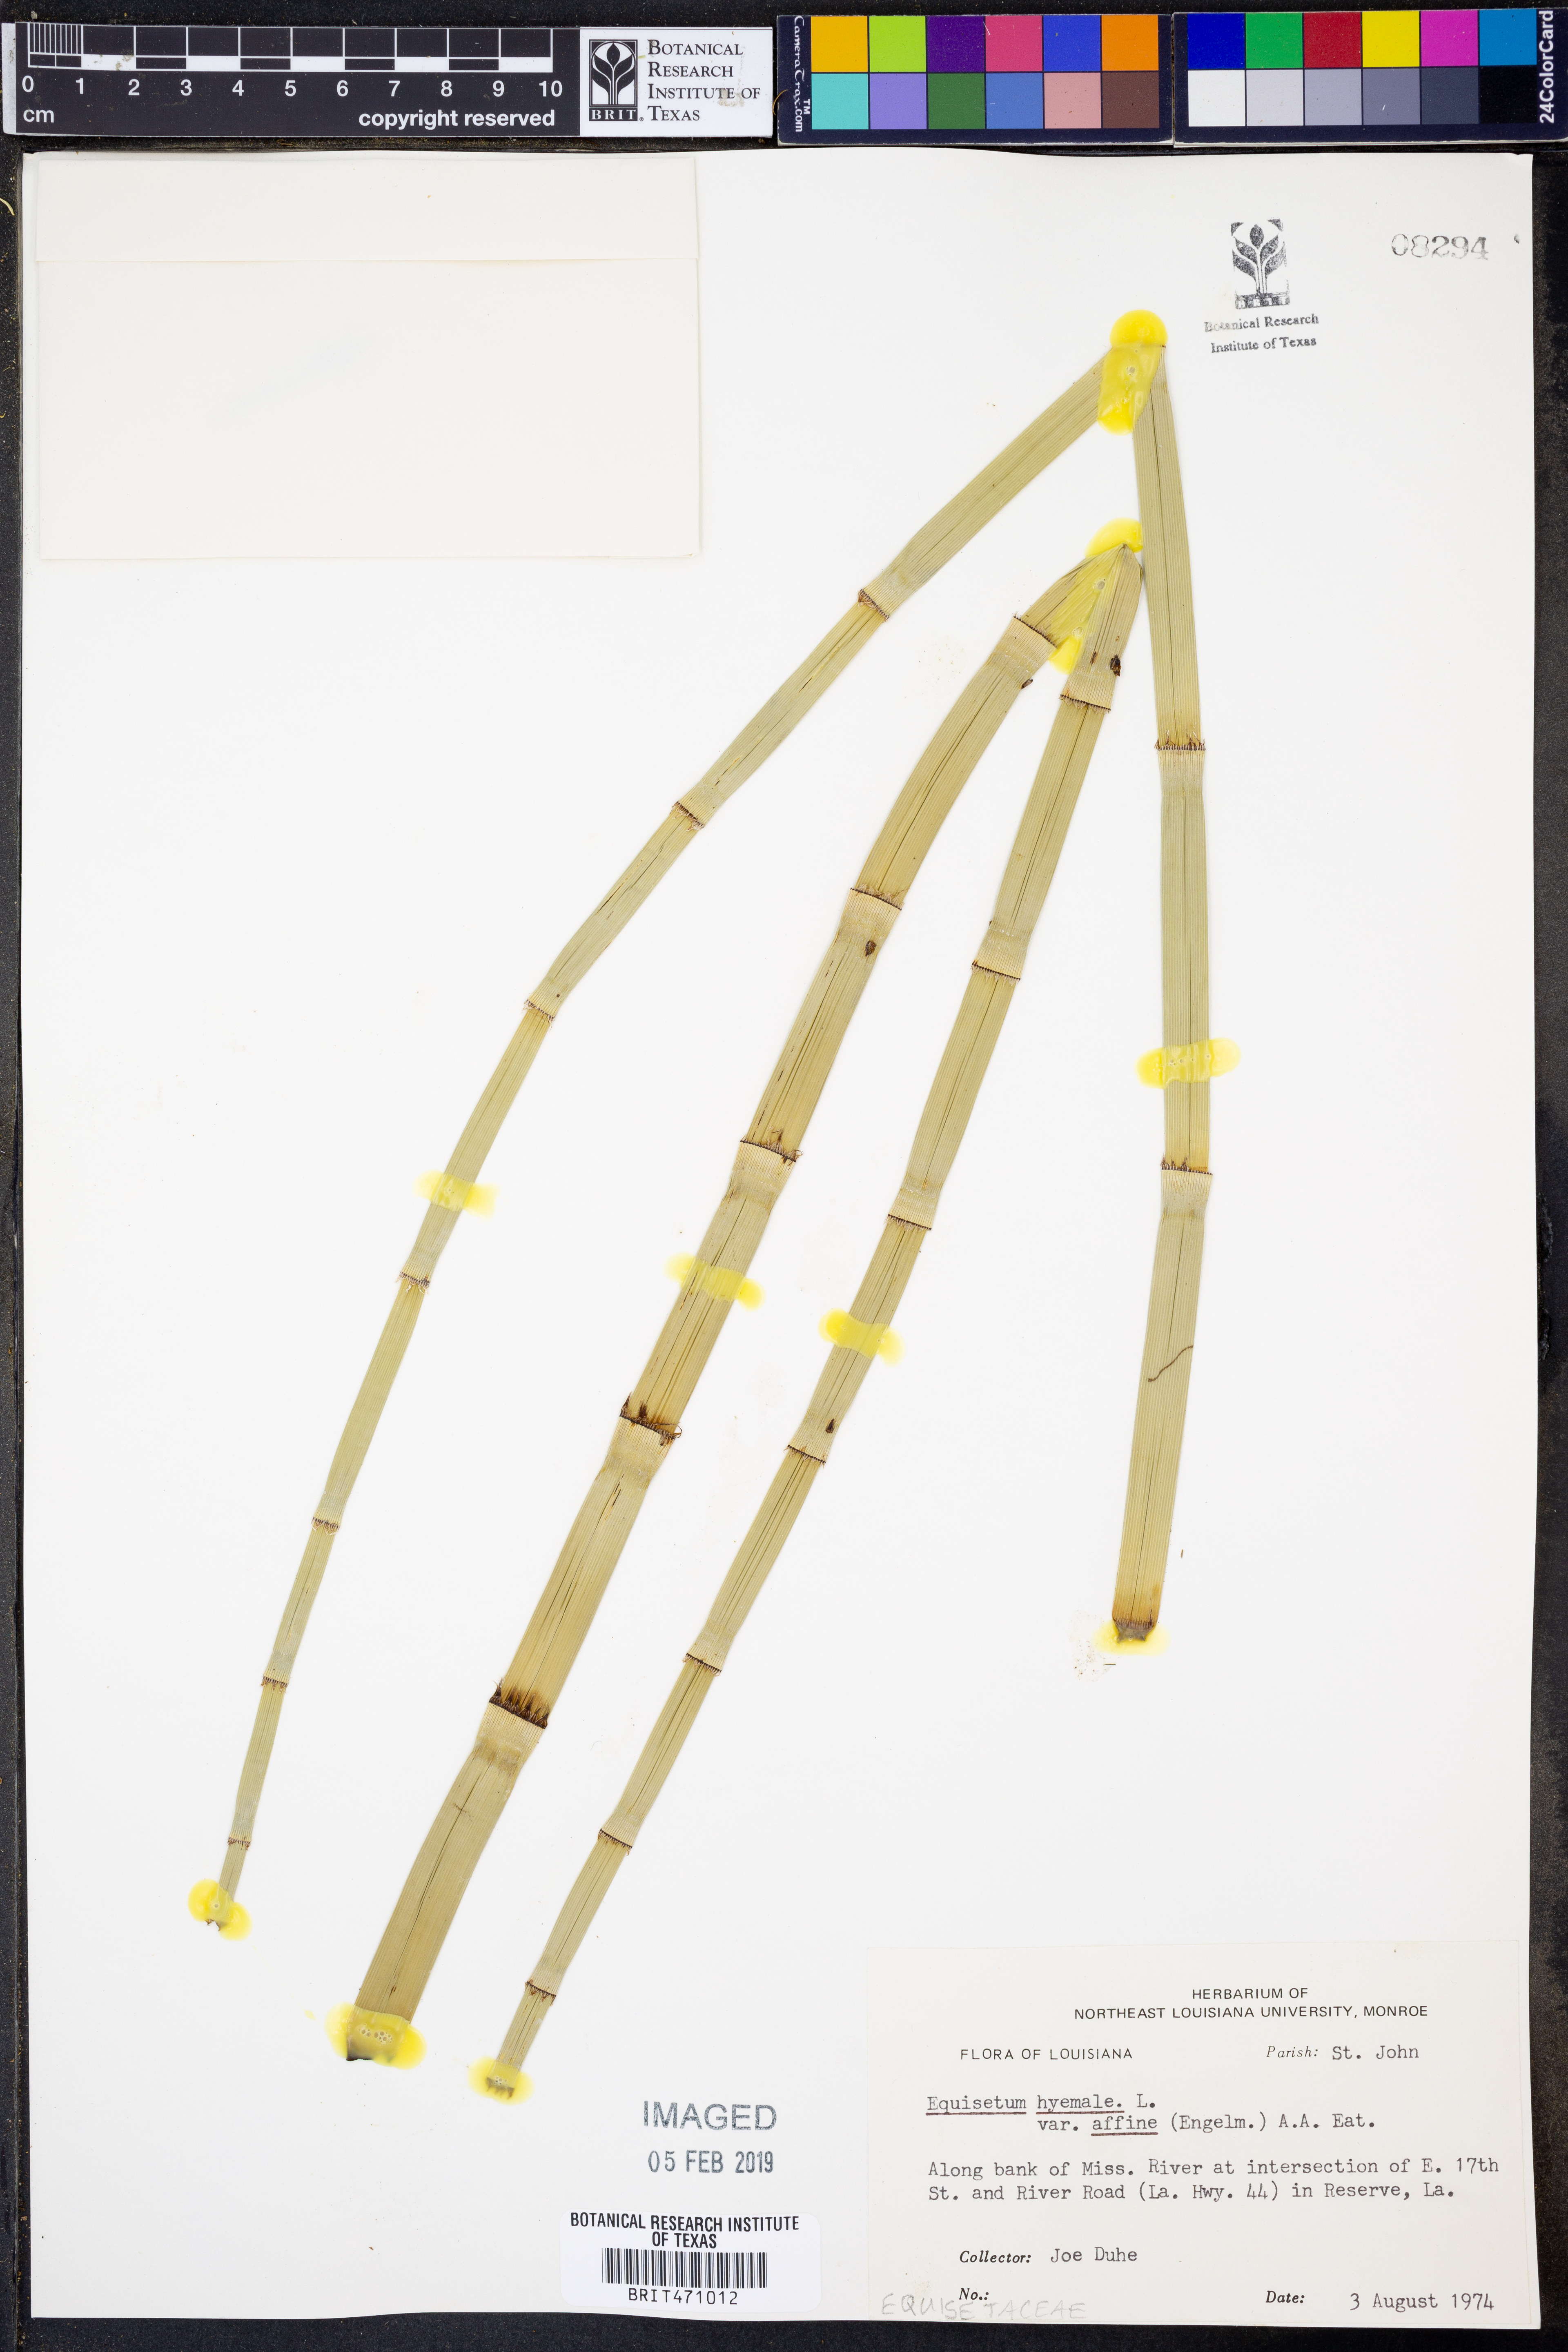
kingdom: Plantae
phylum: Tracheophyta
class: Polypodiopsida
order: Equisetales
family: Equisetaceae
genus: Equisetum
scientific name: Equisetum praealtum
